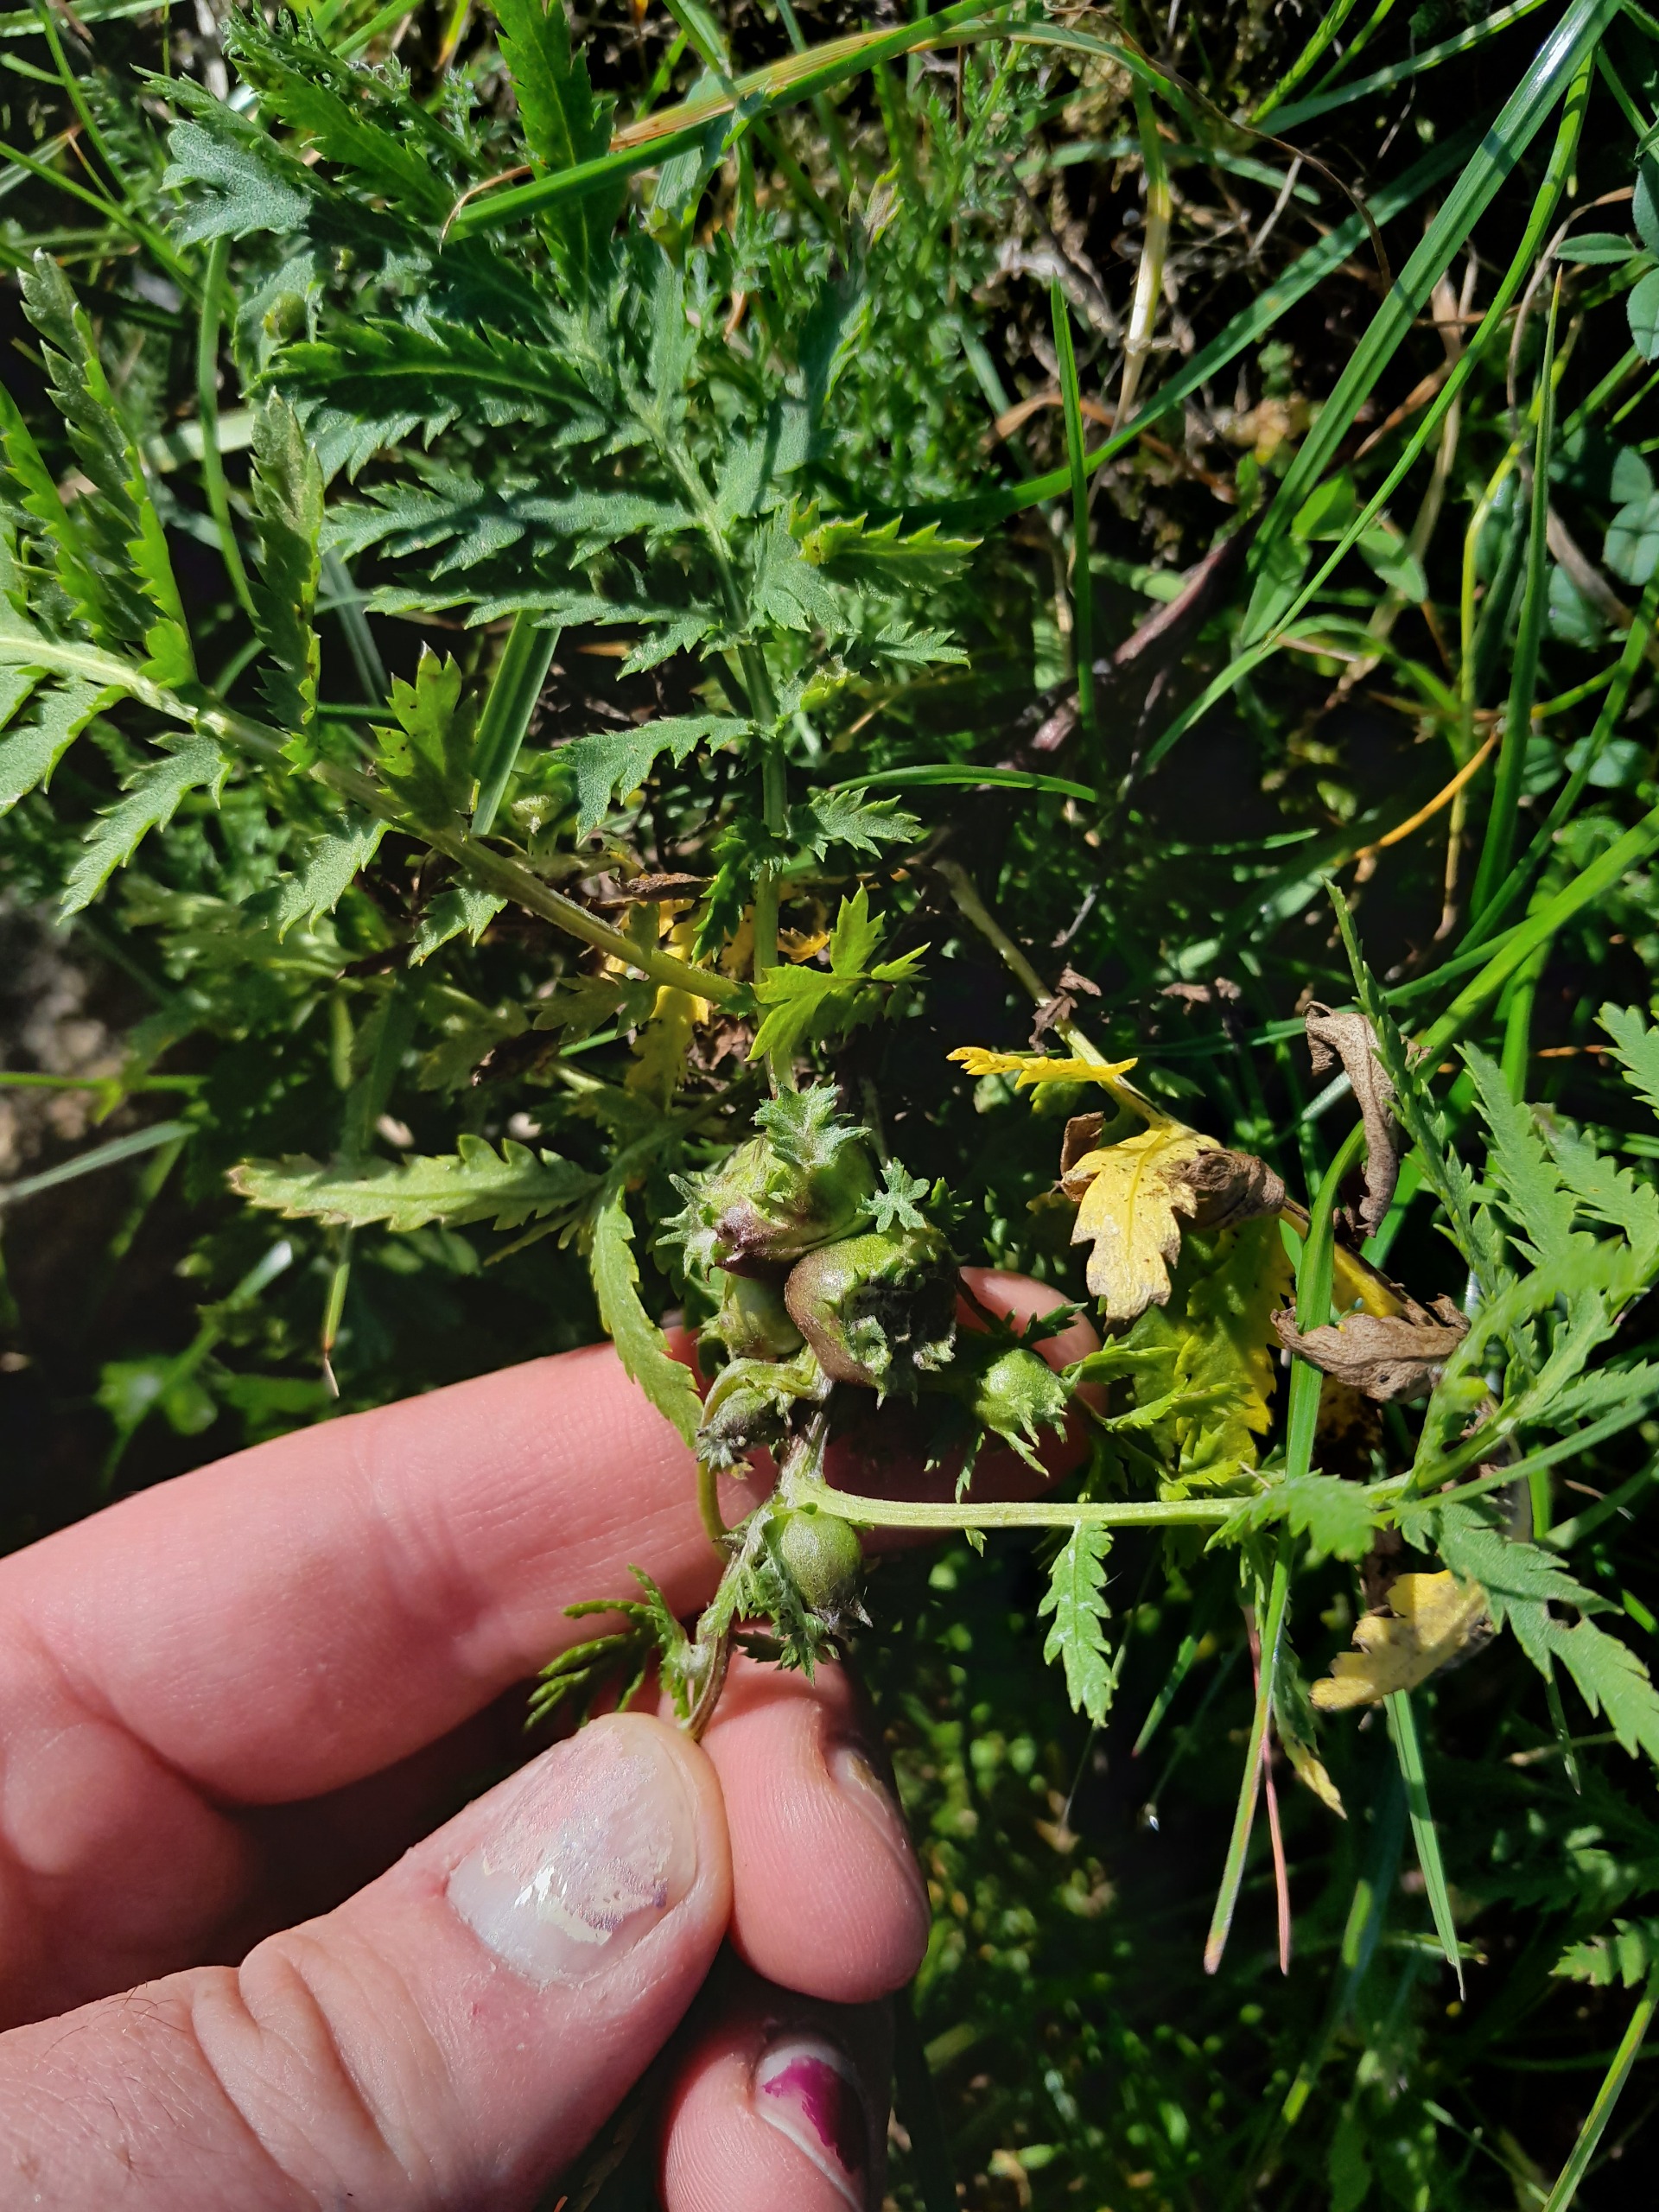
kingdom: Animalia
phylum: Arthropoda
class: Insecta
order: Diptera
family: Cecidomyiidae
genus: Rhopalomyia
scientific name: Rhopalomyia tanaceticolus
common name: Rejnfangalmyg
